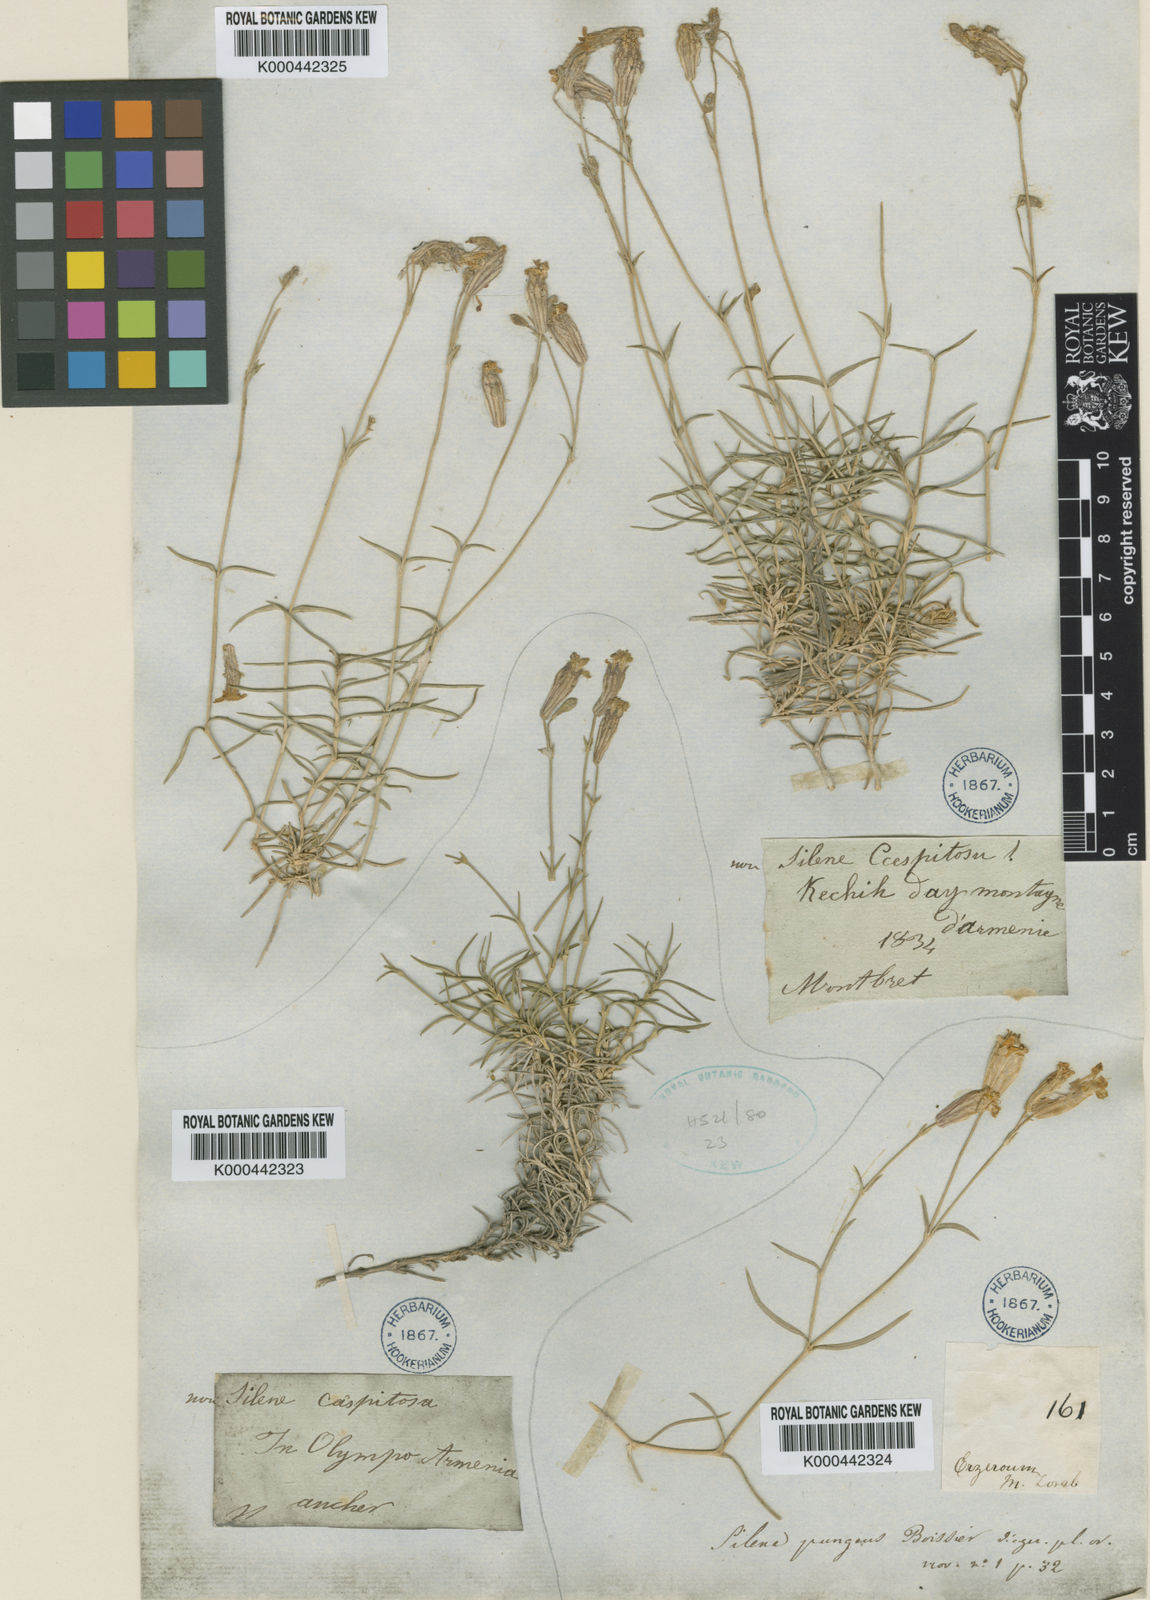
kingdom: Plantae
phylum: Tracheophyta
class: Magnoliopsida
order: Caryophyllales
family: Caryophyllaceae
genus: Silene
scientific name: Silene pungens
